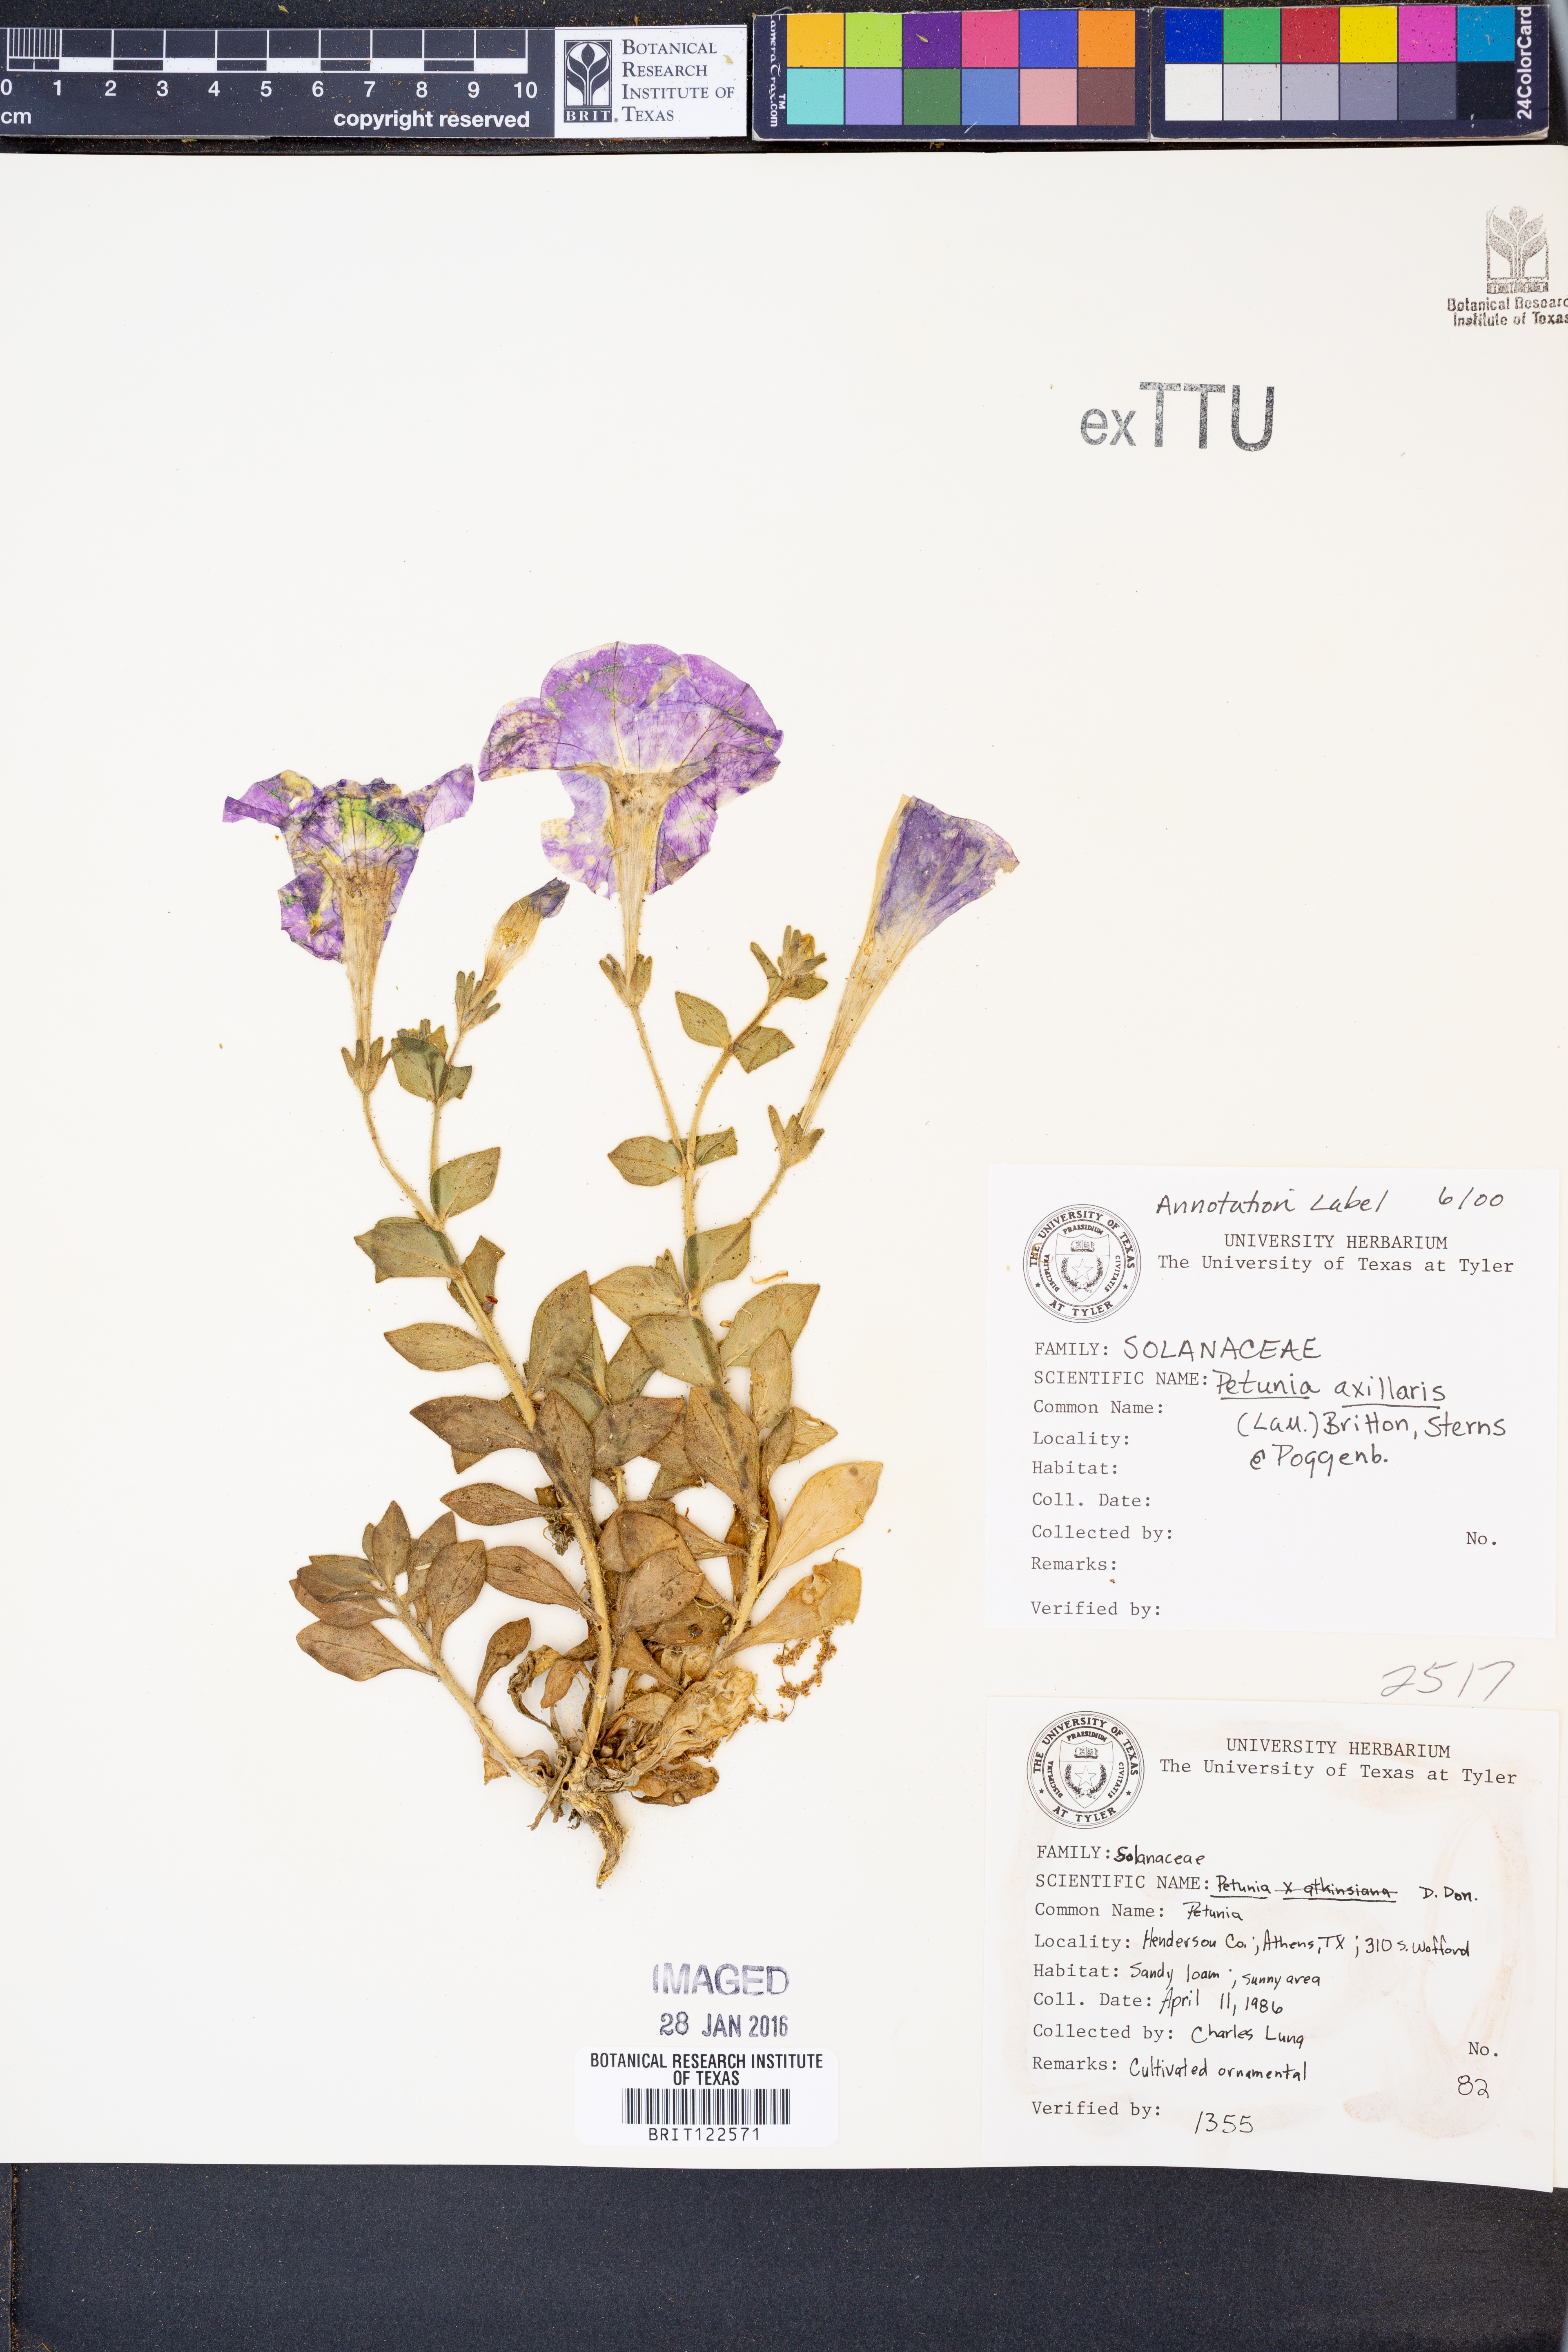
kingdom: Plantae
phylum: Tracheophyta
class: Magnoliopsida
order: Solanales
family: Solanaceae
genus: Petunia
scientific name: Petunia axillaris
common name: Large white petunia
